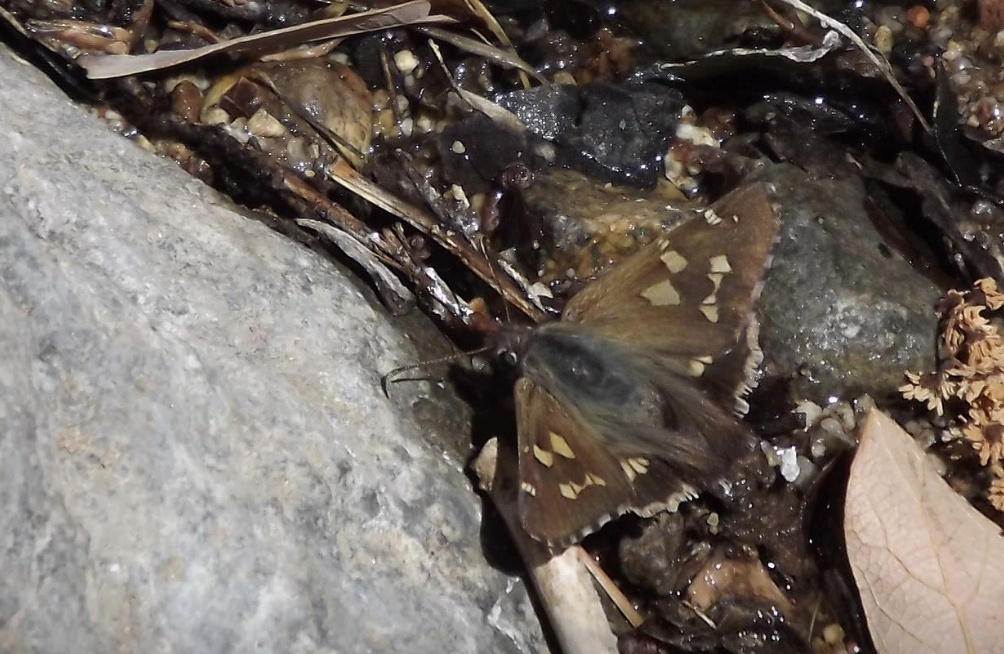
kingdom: Animalia
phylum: Arthropoda
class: Insecta
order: Lepidoptera
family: Hesperiidae
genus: Zestusa
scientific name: Zestusa dorus
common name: Short-tailed Skipper
